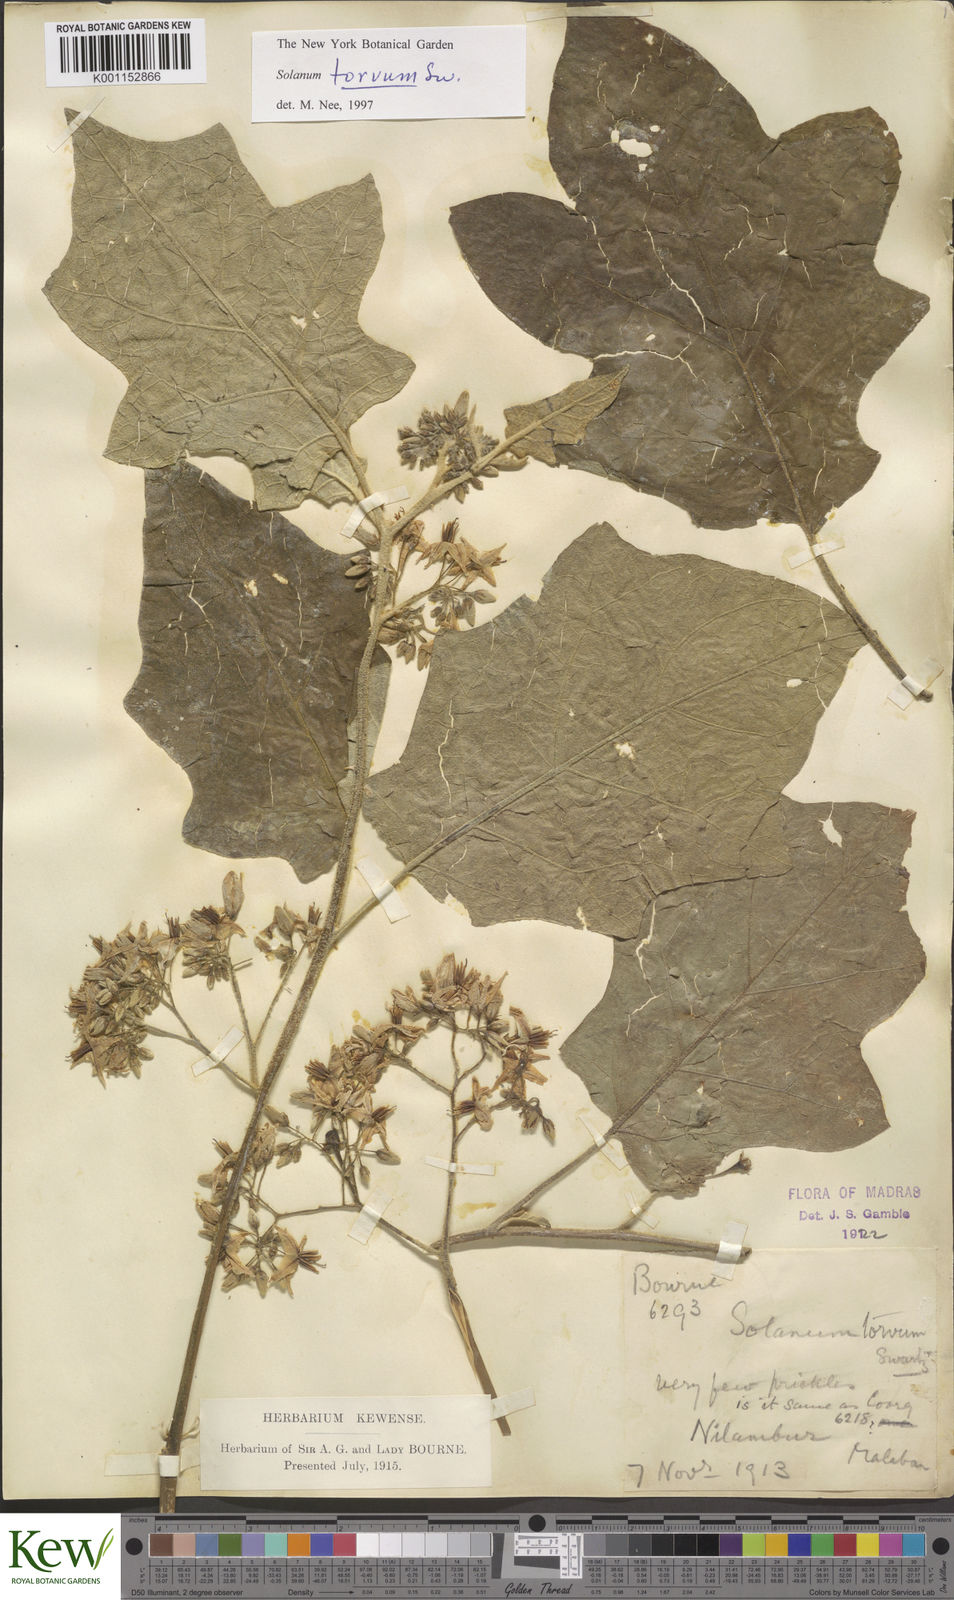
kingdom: Plantae
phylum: Tracheophyta
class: Magnoliopsida
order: Solanales
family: Solanaceae
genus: Solanum
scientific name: Solanum torvum
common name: Turkey berry
